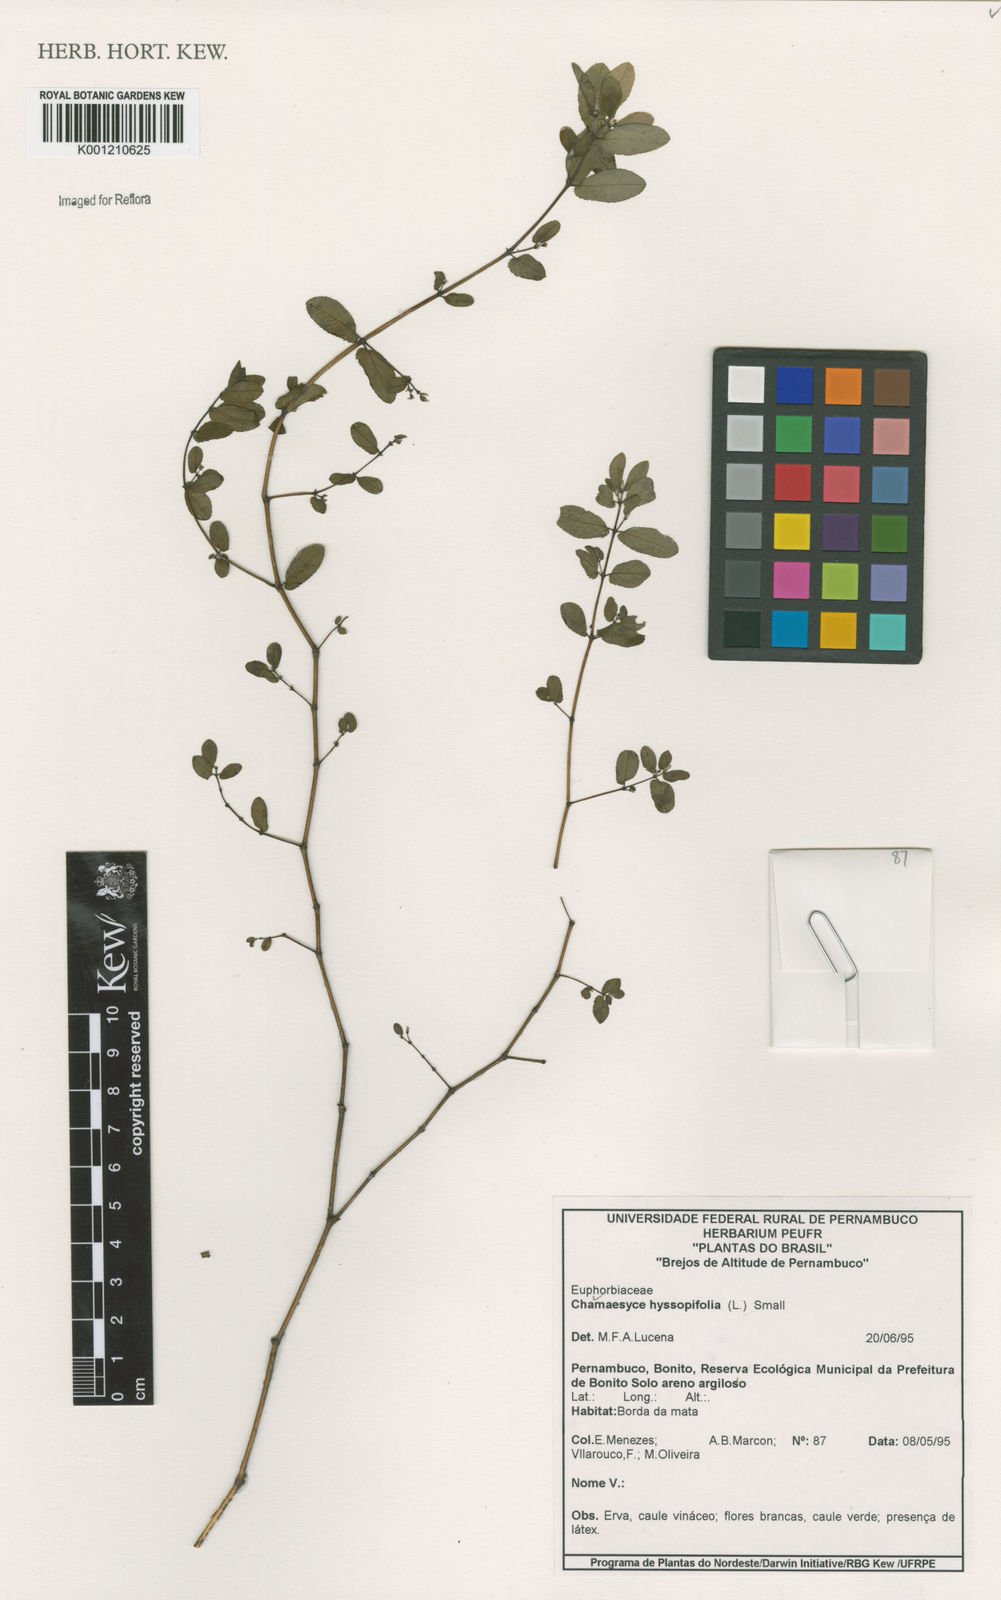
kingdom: Plantae
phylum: Tracheophyta
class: Magnoliopsida
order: Malpighiales
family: Euphorbiaceae
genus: Euphorbia
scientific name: Euphorbia hyssopifolia
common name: Hyssopleaf sandmat
